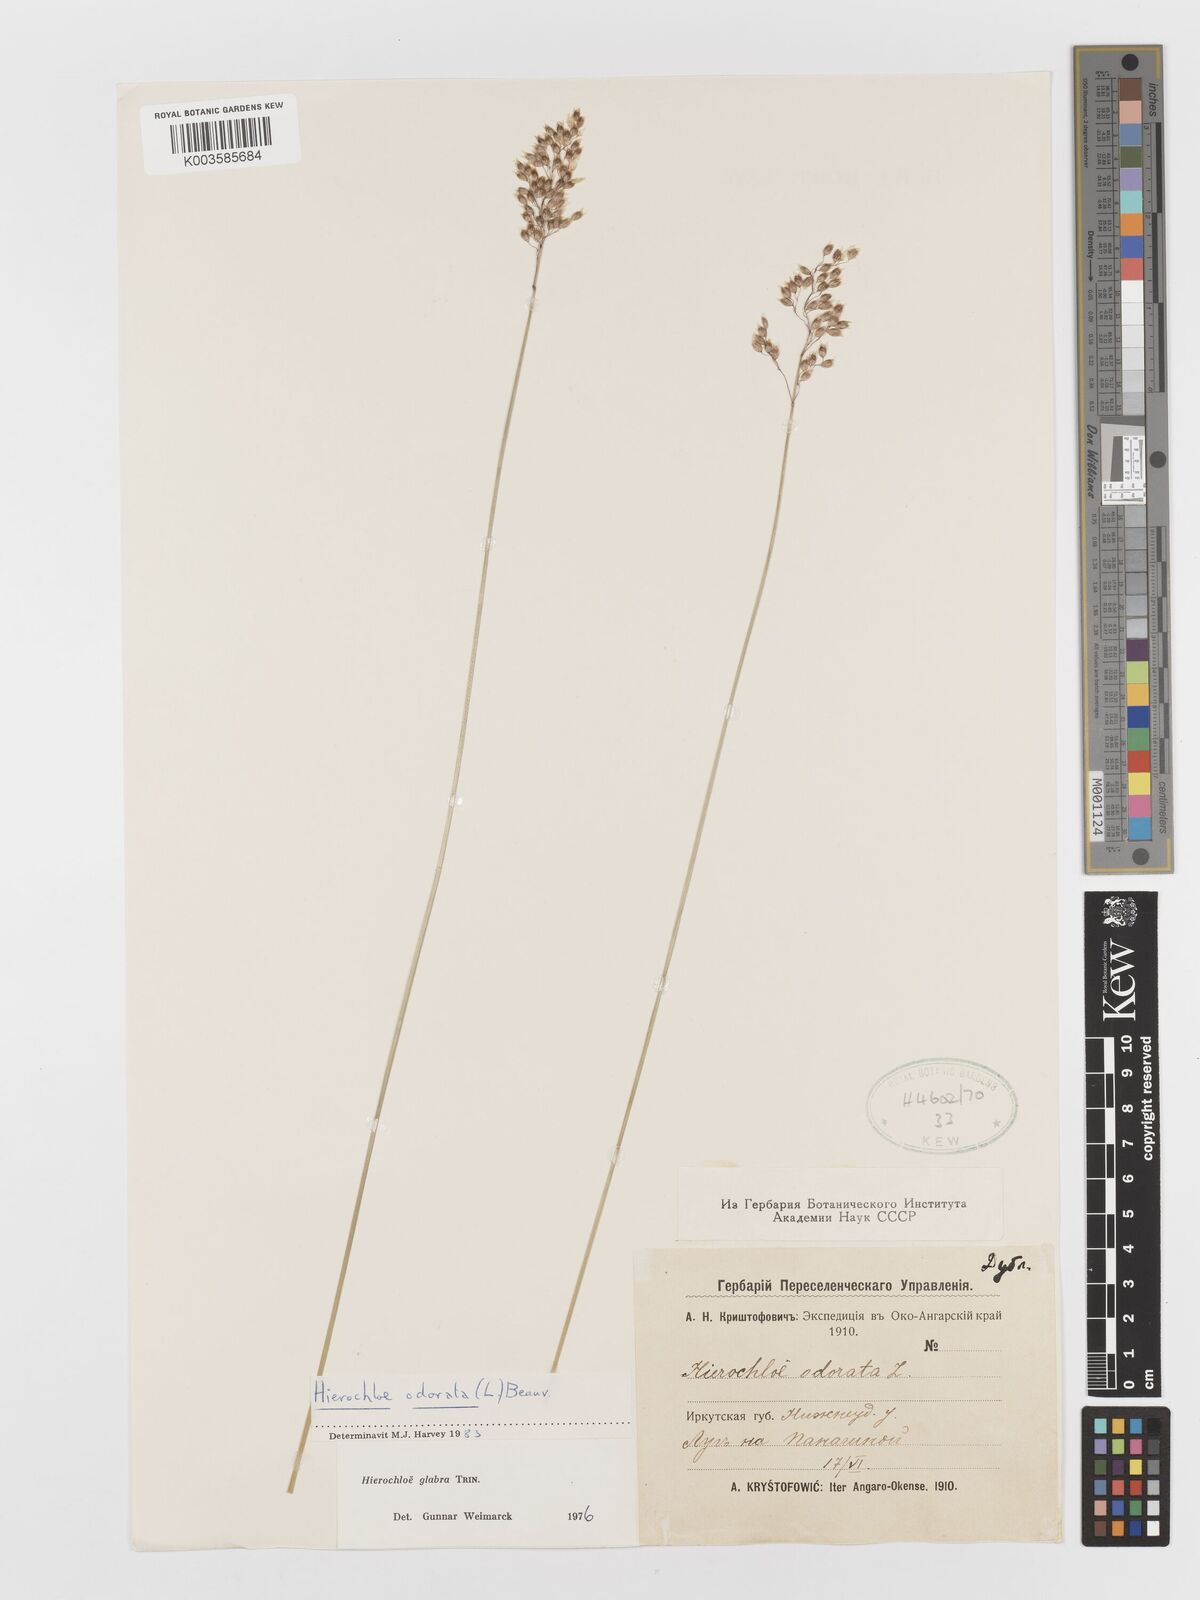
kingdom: Plantae
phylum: Tracheophyta
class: Liliopsida
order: Poales
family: Poaceae
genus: Anthoxanthum
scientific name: Anthoxanthum glabrum
